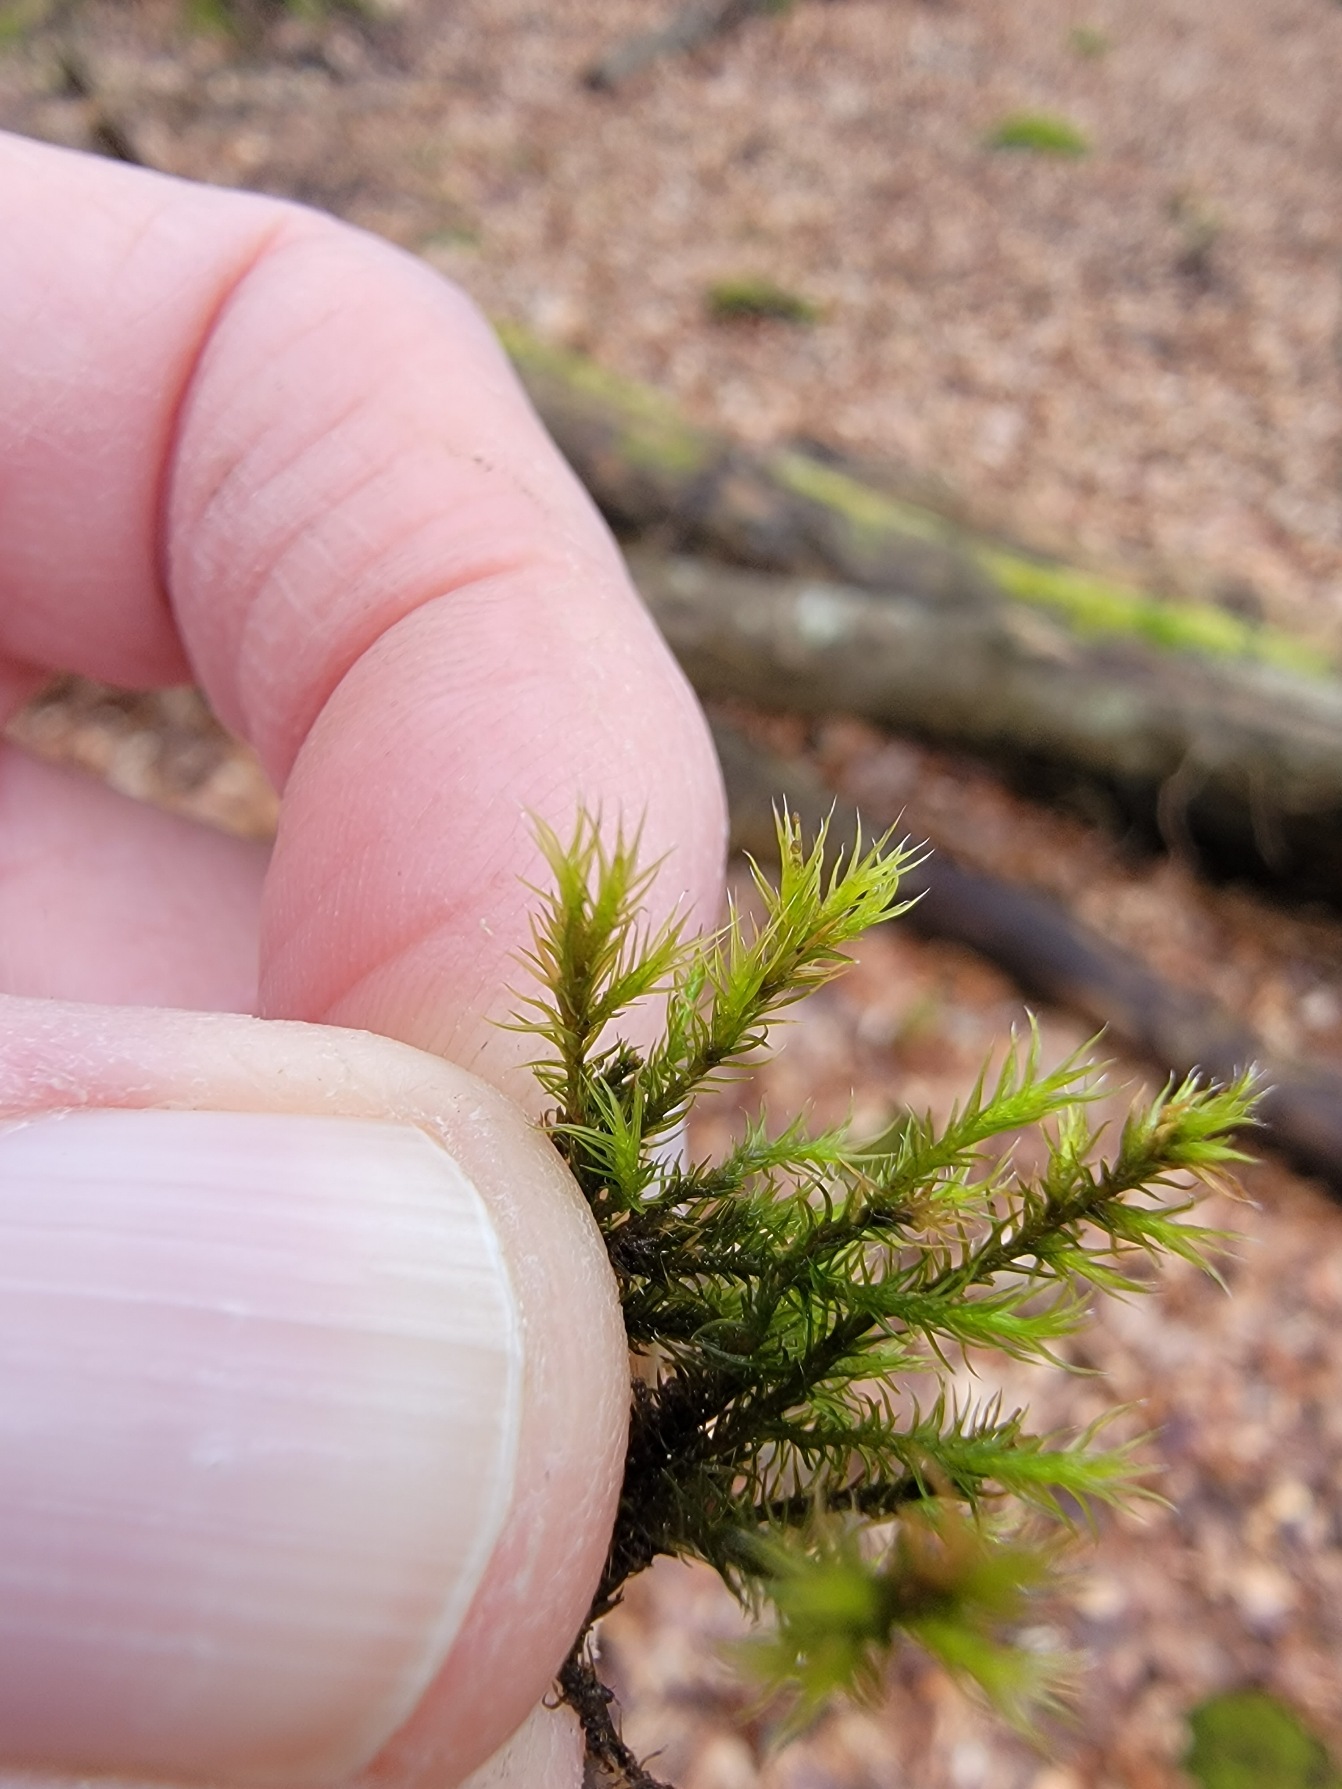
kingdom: Plantae
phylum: Bryophyta
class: Bryopsida
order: Grimmiales
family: Grimmiaceae
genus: Grimmia
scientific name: Grimmia hartmanii
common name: Hartmans gråmos
